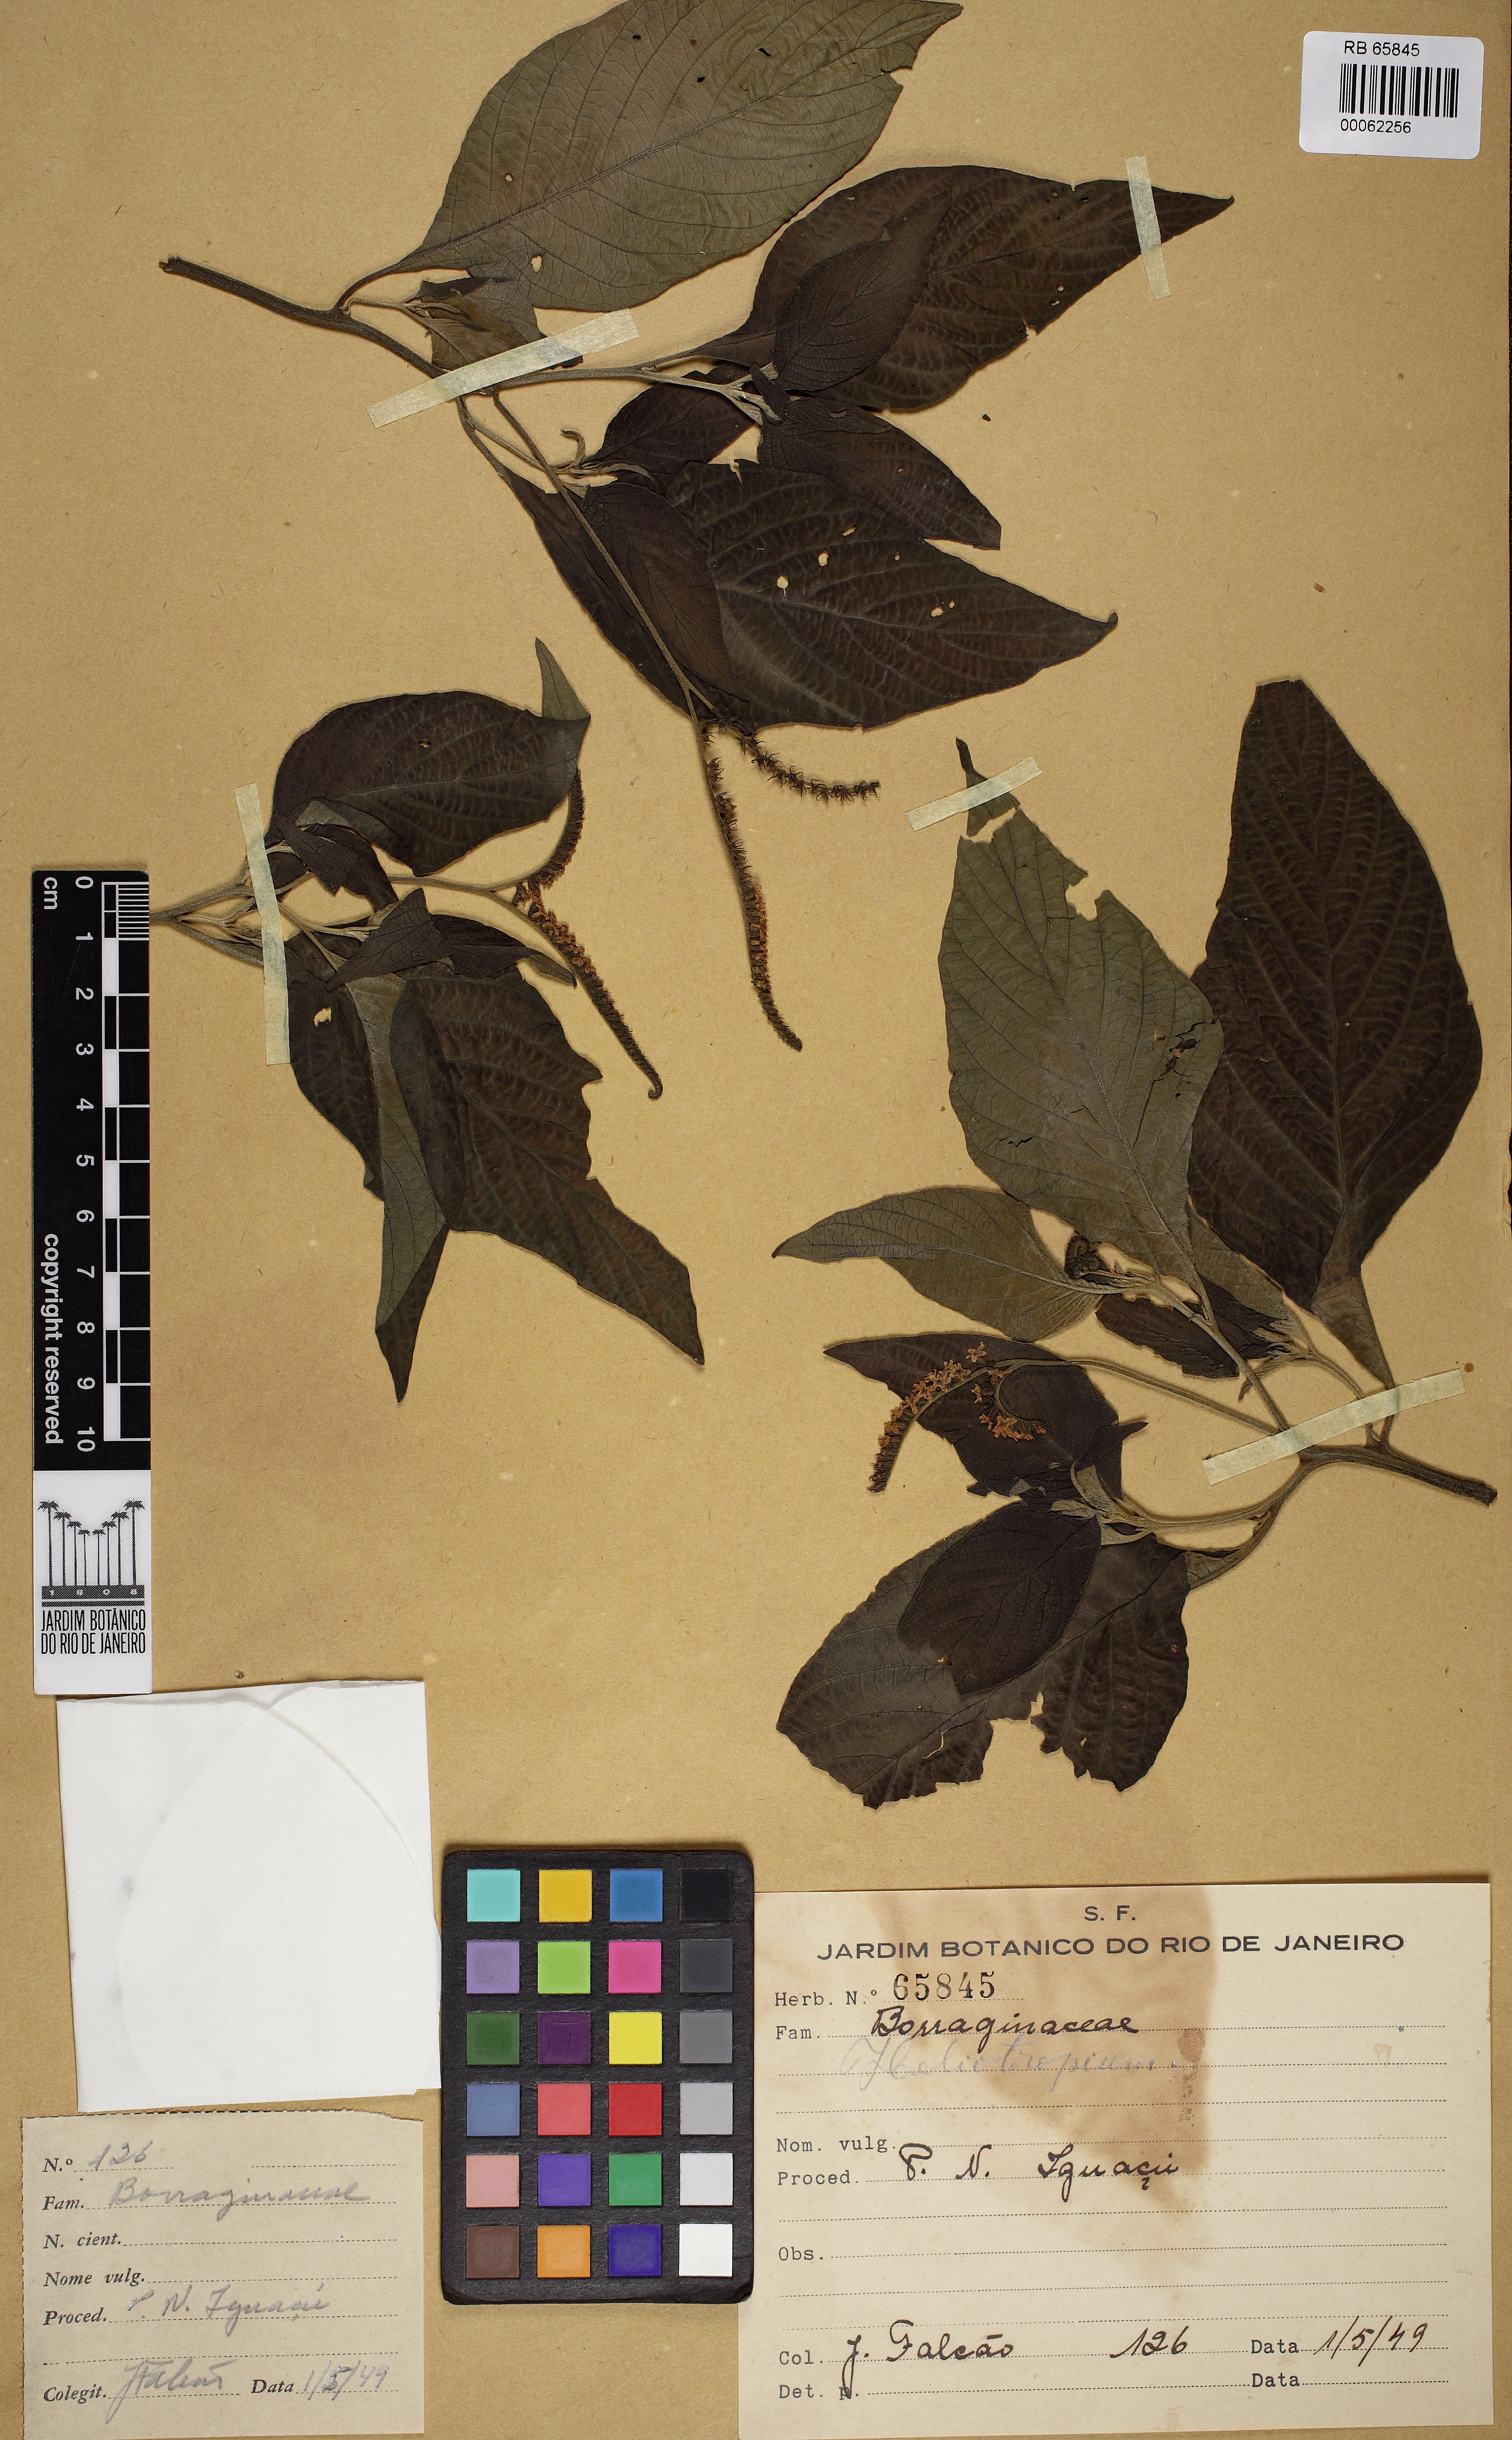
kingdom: Plantae
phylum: Tracheophyta
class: Magnoliopsida
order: Boraginales
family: Heliotropiaceae
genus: Heliotropium
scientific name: Heliotropium transalpinum
